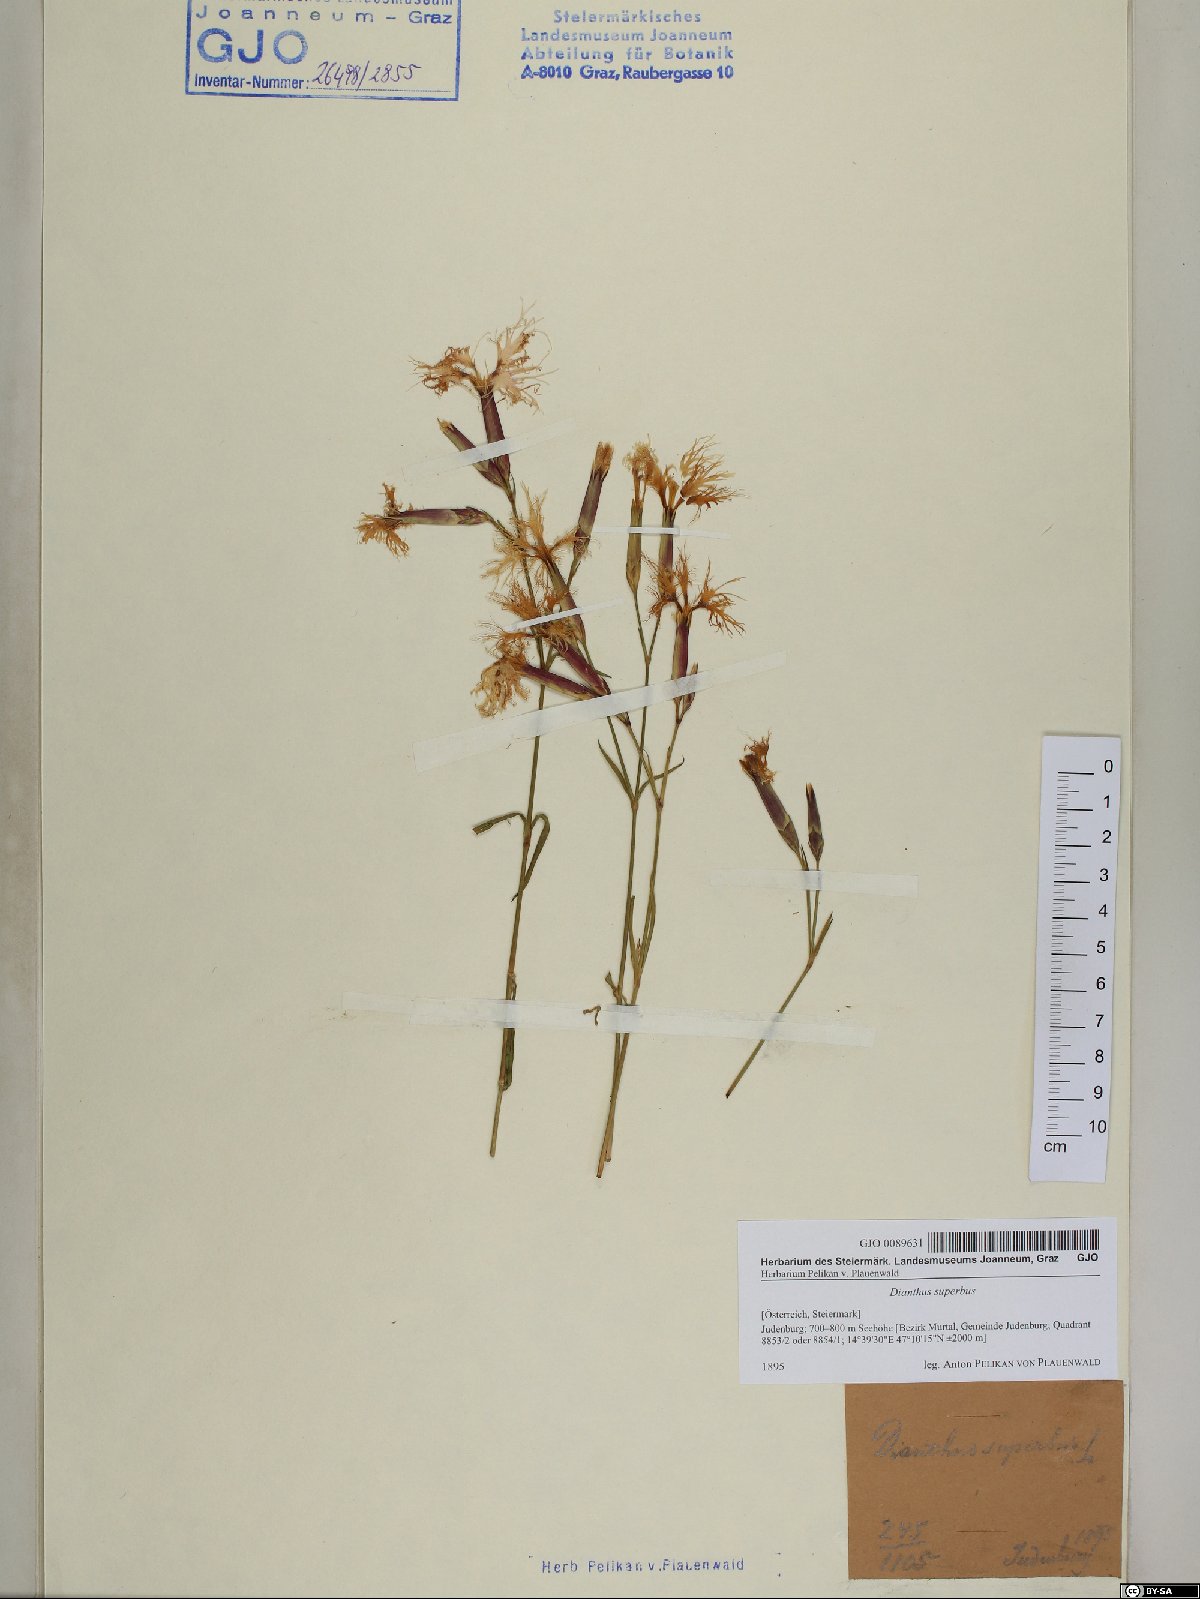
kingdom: Plantae
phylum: Tracheophyta
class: Magnoliopsida
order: Caryophyllales
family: Caryophyllaceae
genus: Dianthus
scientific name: Dianthus superbus
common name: Fringed pink
